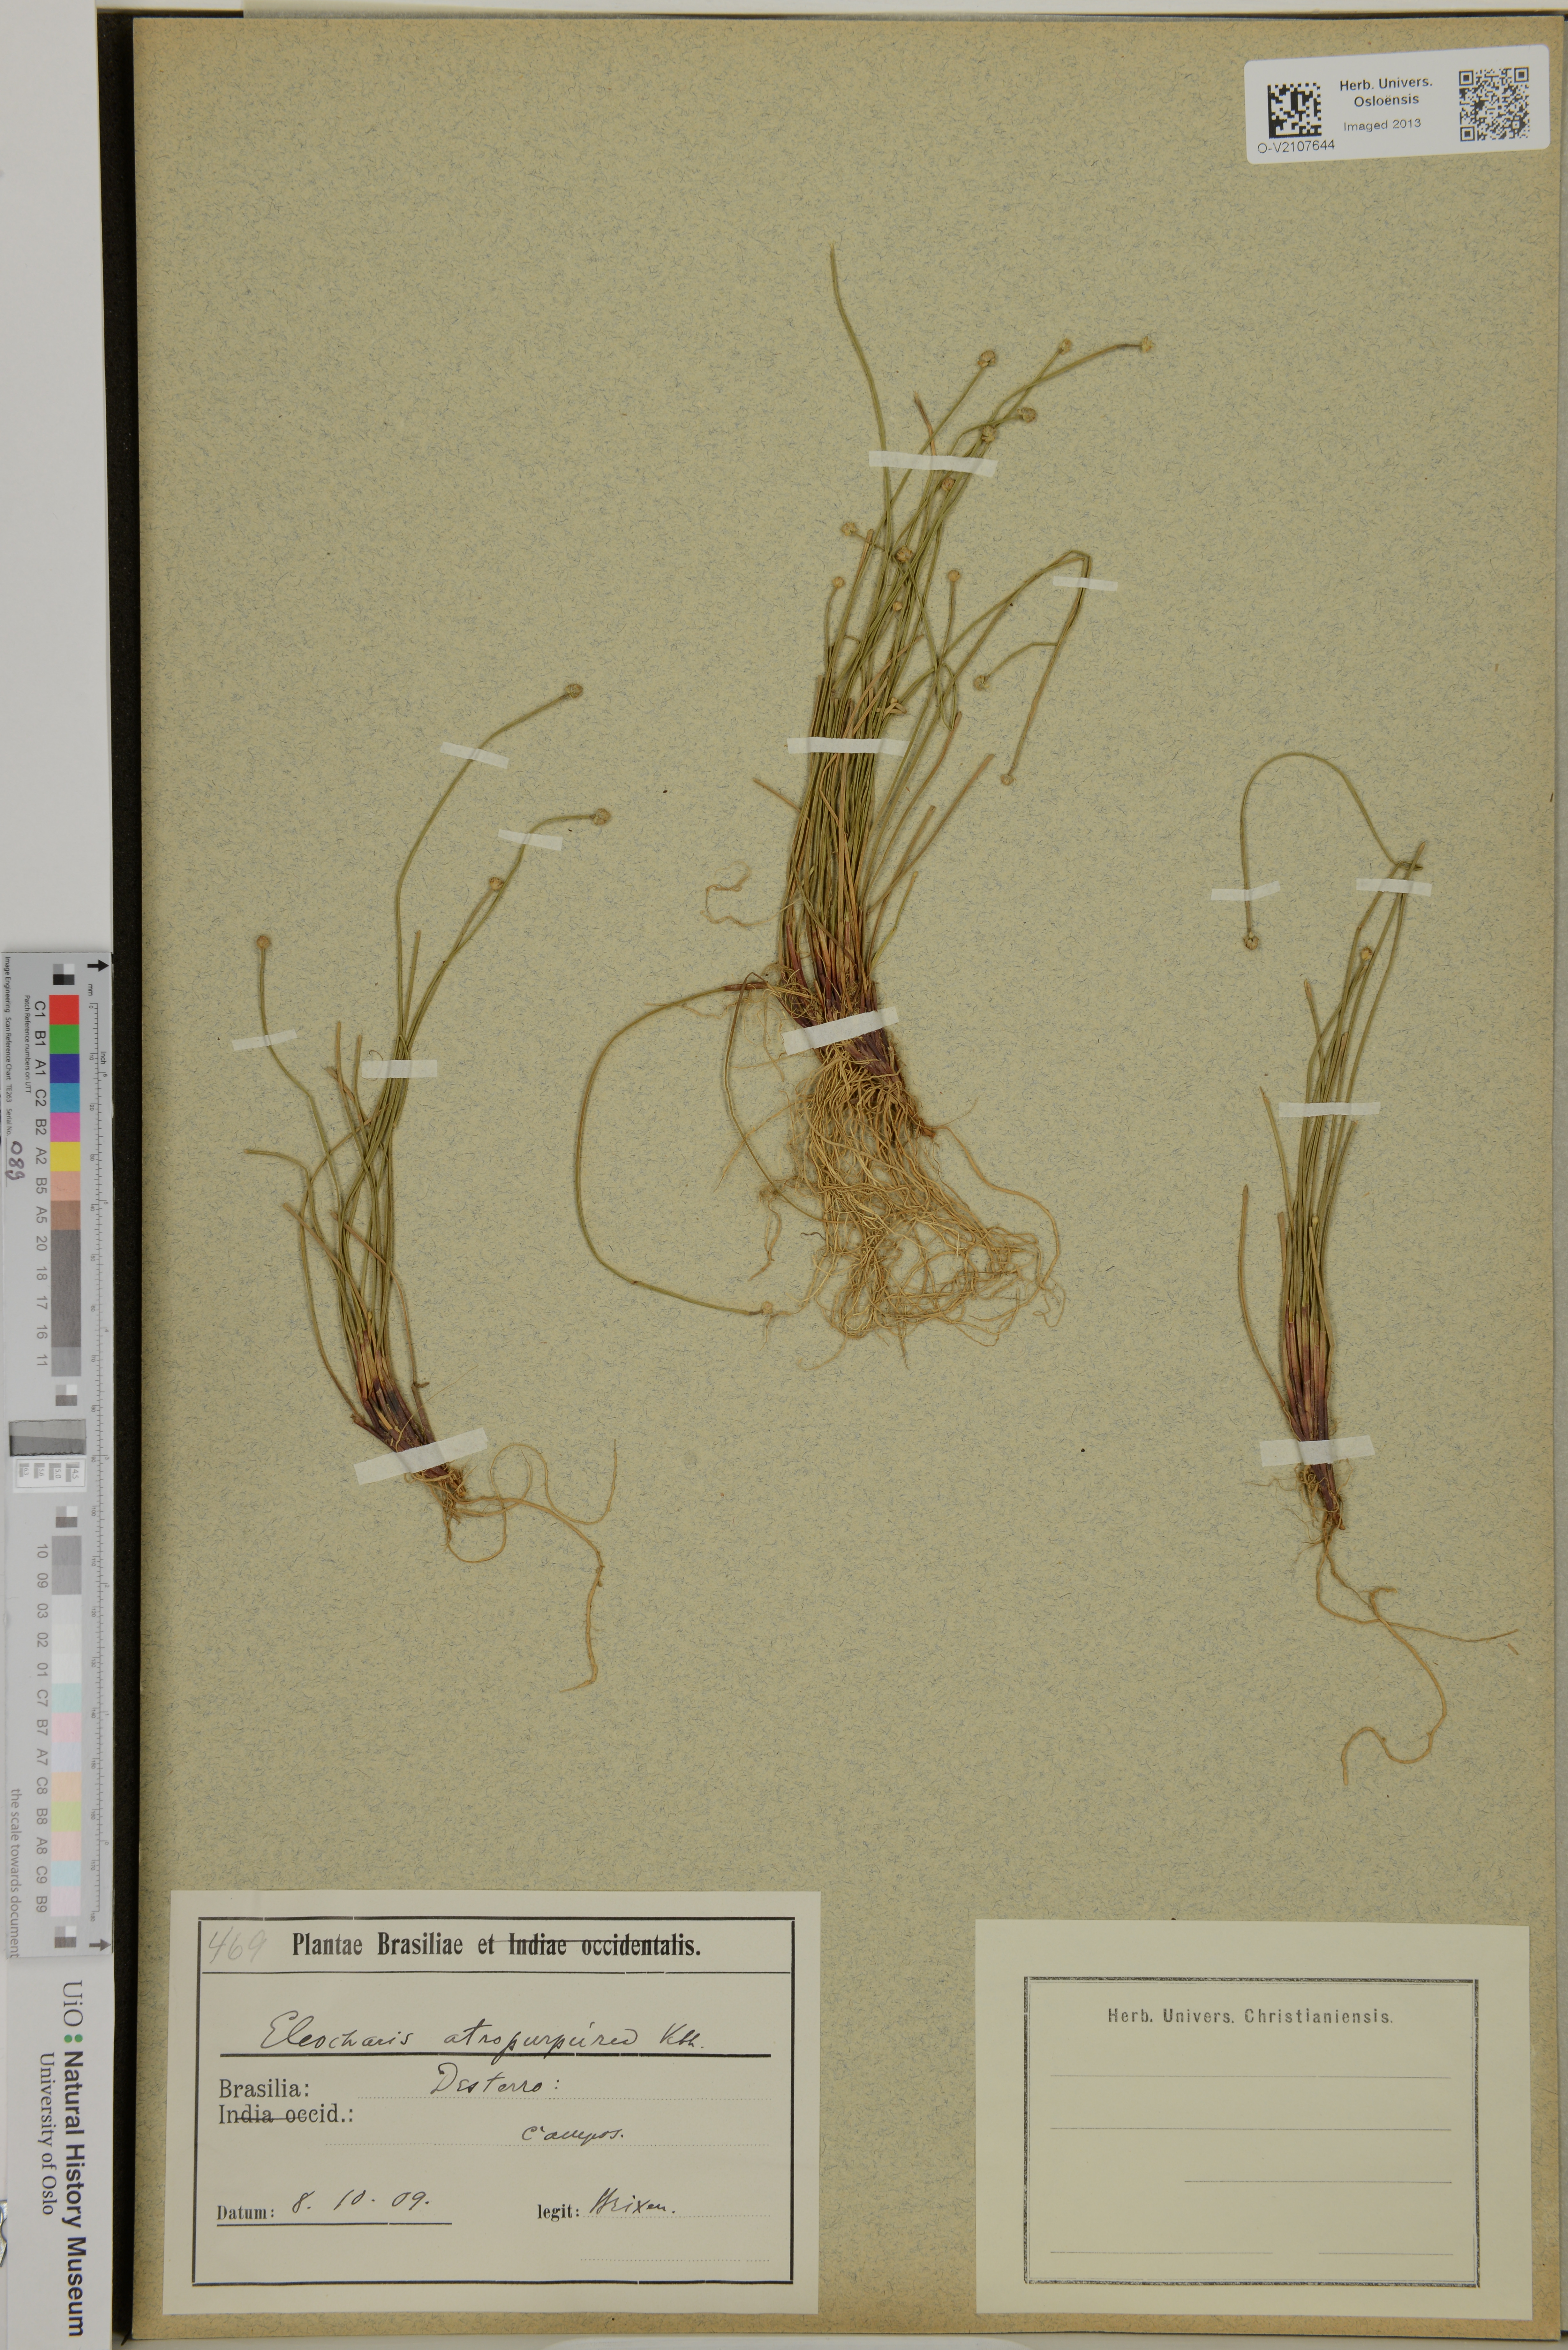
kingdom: Plantae
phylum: Tracheophyta
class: Liliopsida
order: Poales
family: Cyperaceae
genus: Eleocharis
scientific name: Eleocharis atropurpurea
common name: Purple spikerush
